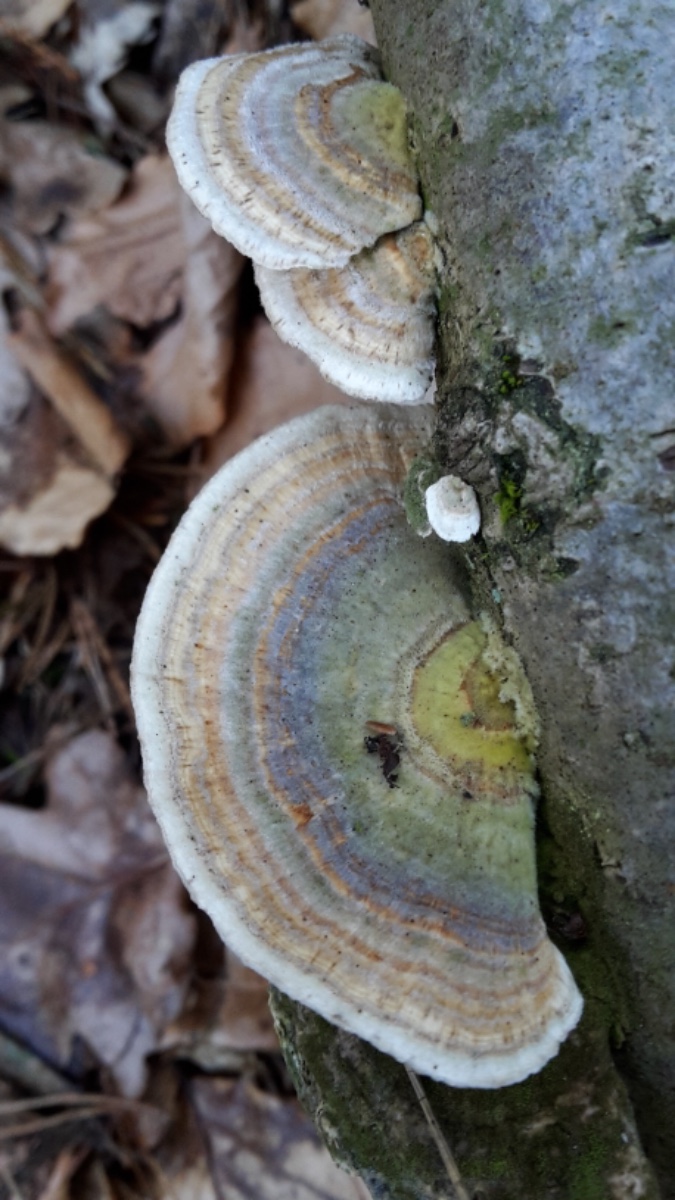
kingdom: Fungi
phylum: Basidiomycota
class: Agaricomycetes
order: Polyporales
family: Polyporaceae
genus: Trametes
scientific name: Trametes versicolor
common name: broget læderporesvamp
